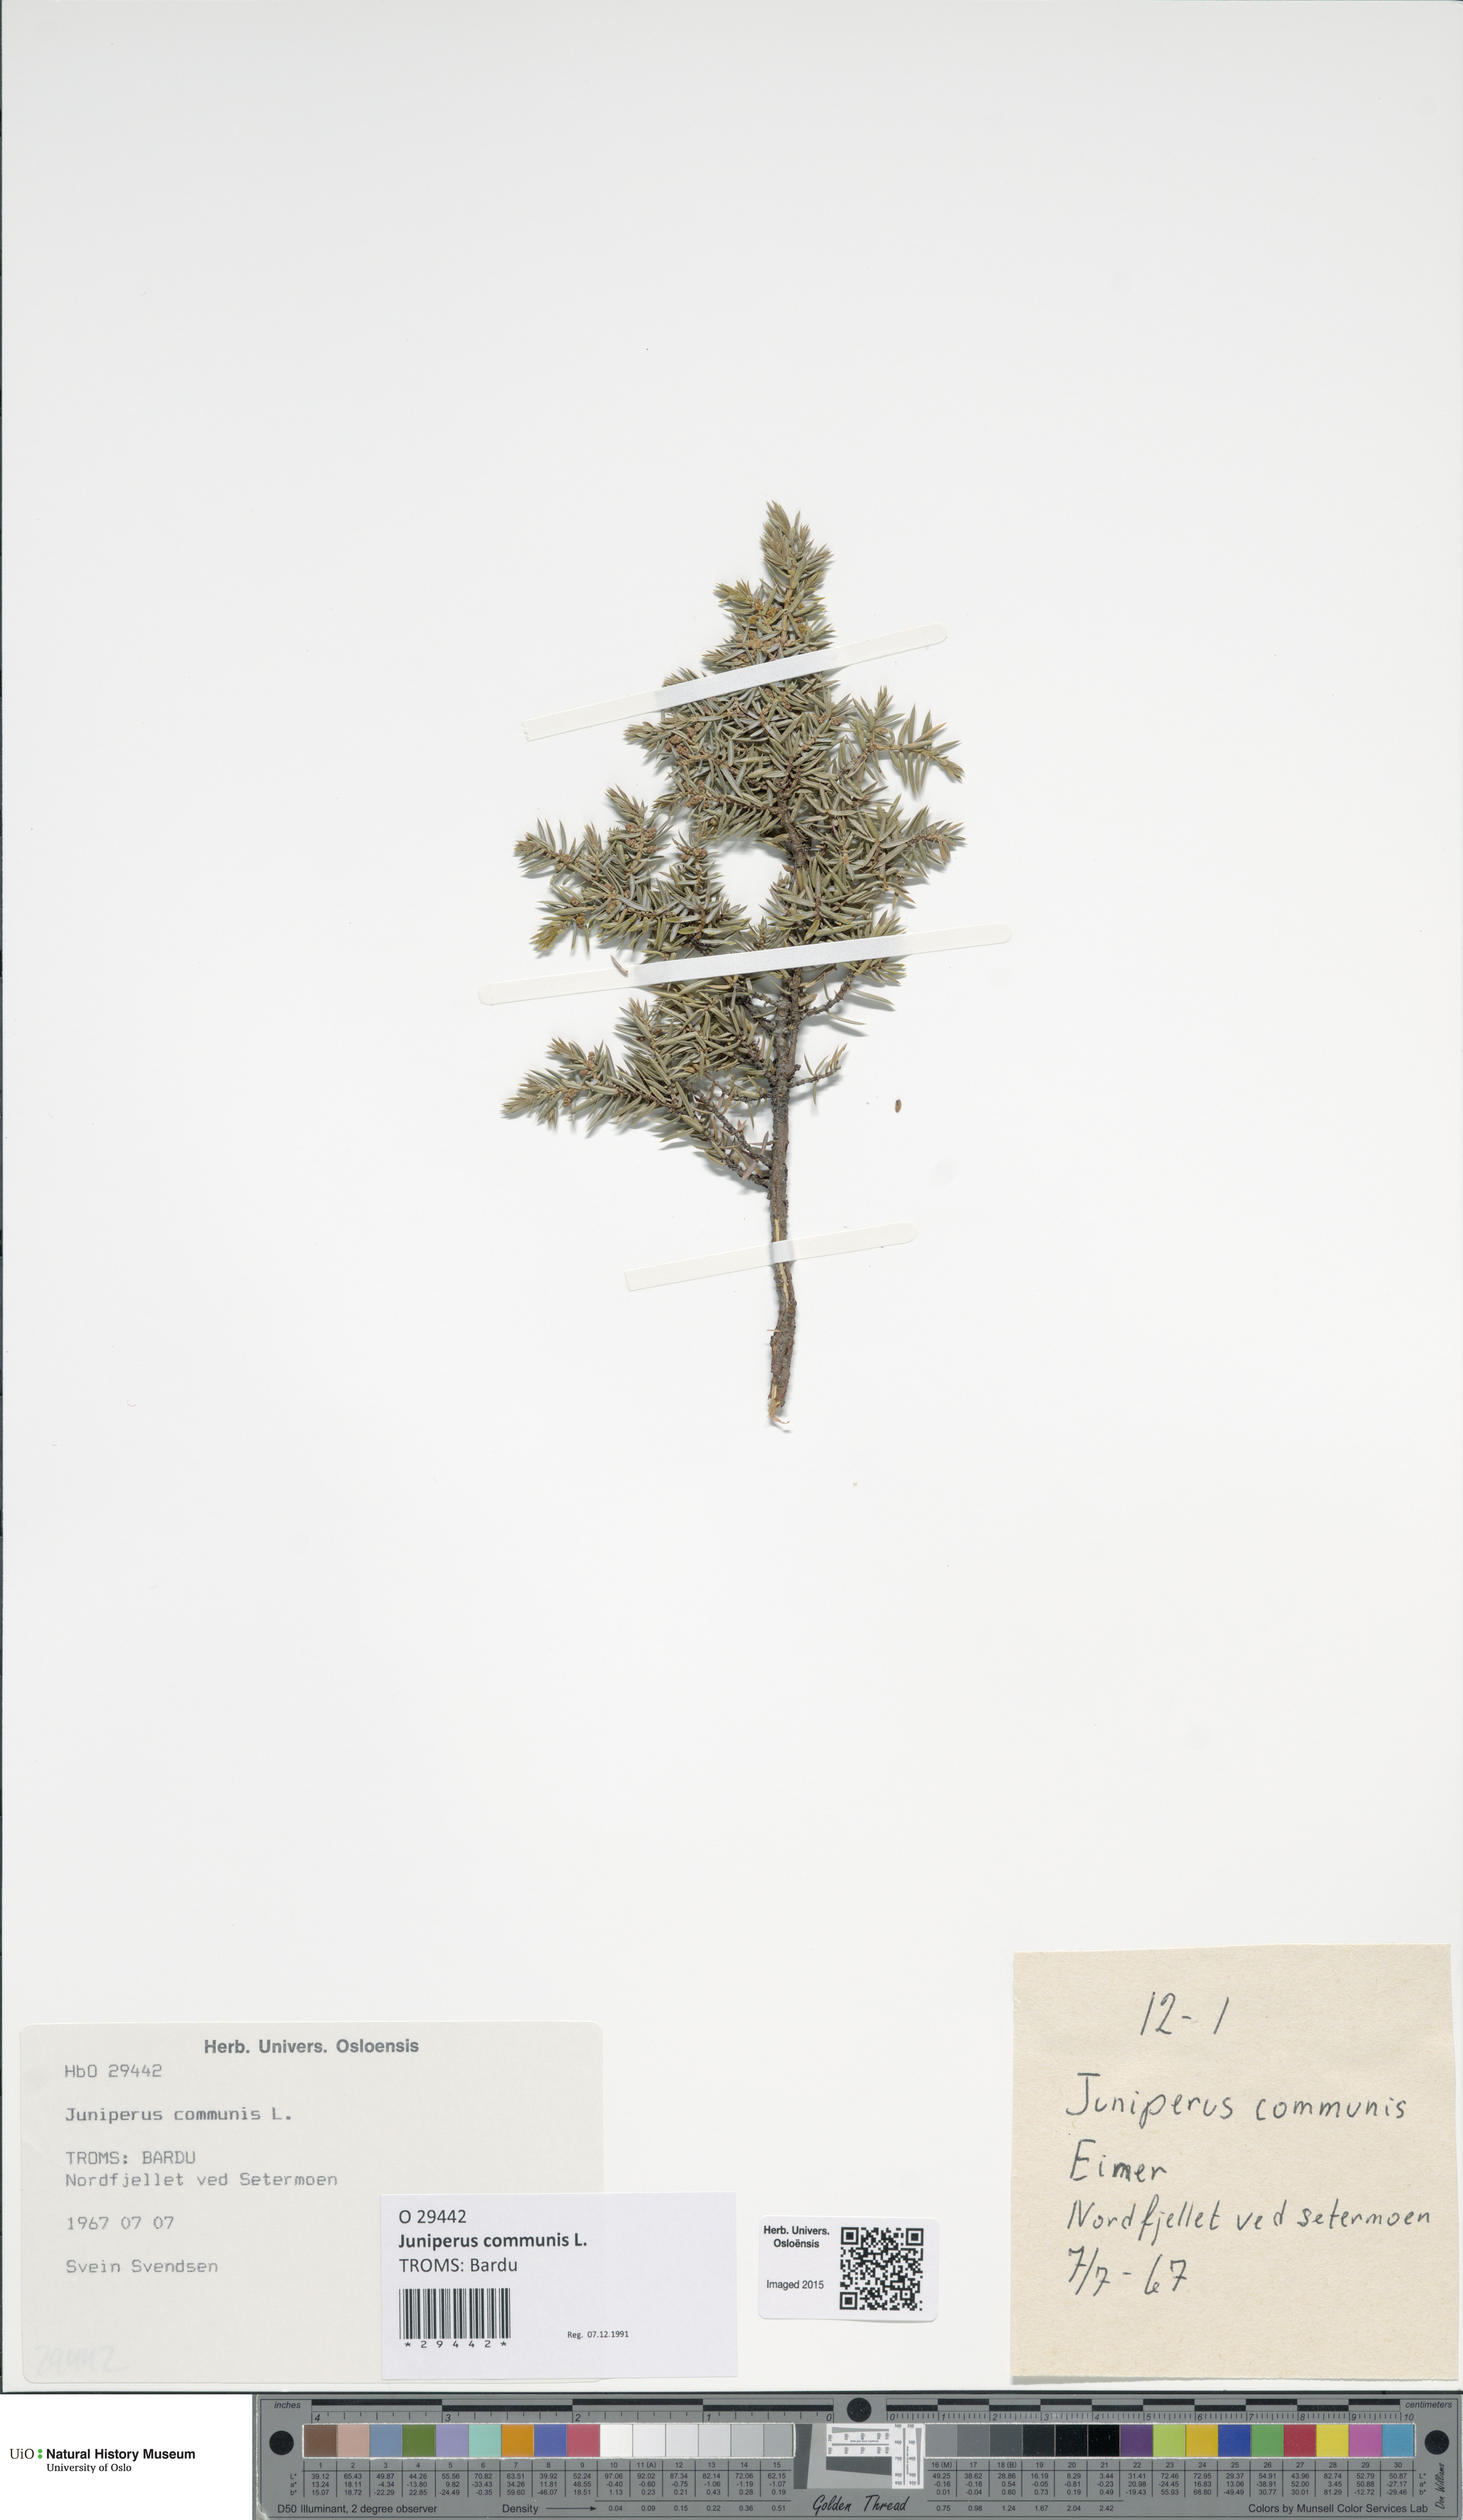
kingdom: Plantae
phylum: Tracheophyta
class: Pinopsida
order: Pinales
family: Cupressaceae
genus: Juniperus
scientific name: Juniperus communis
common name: Common juniper
